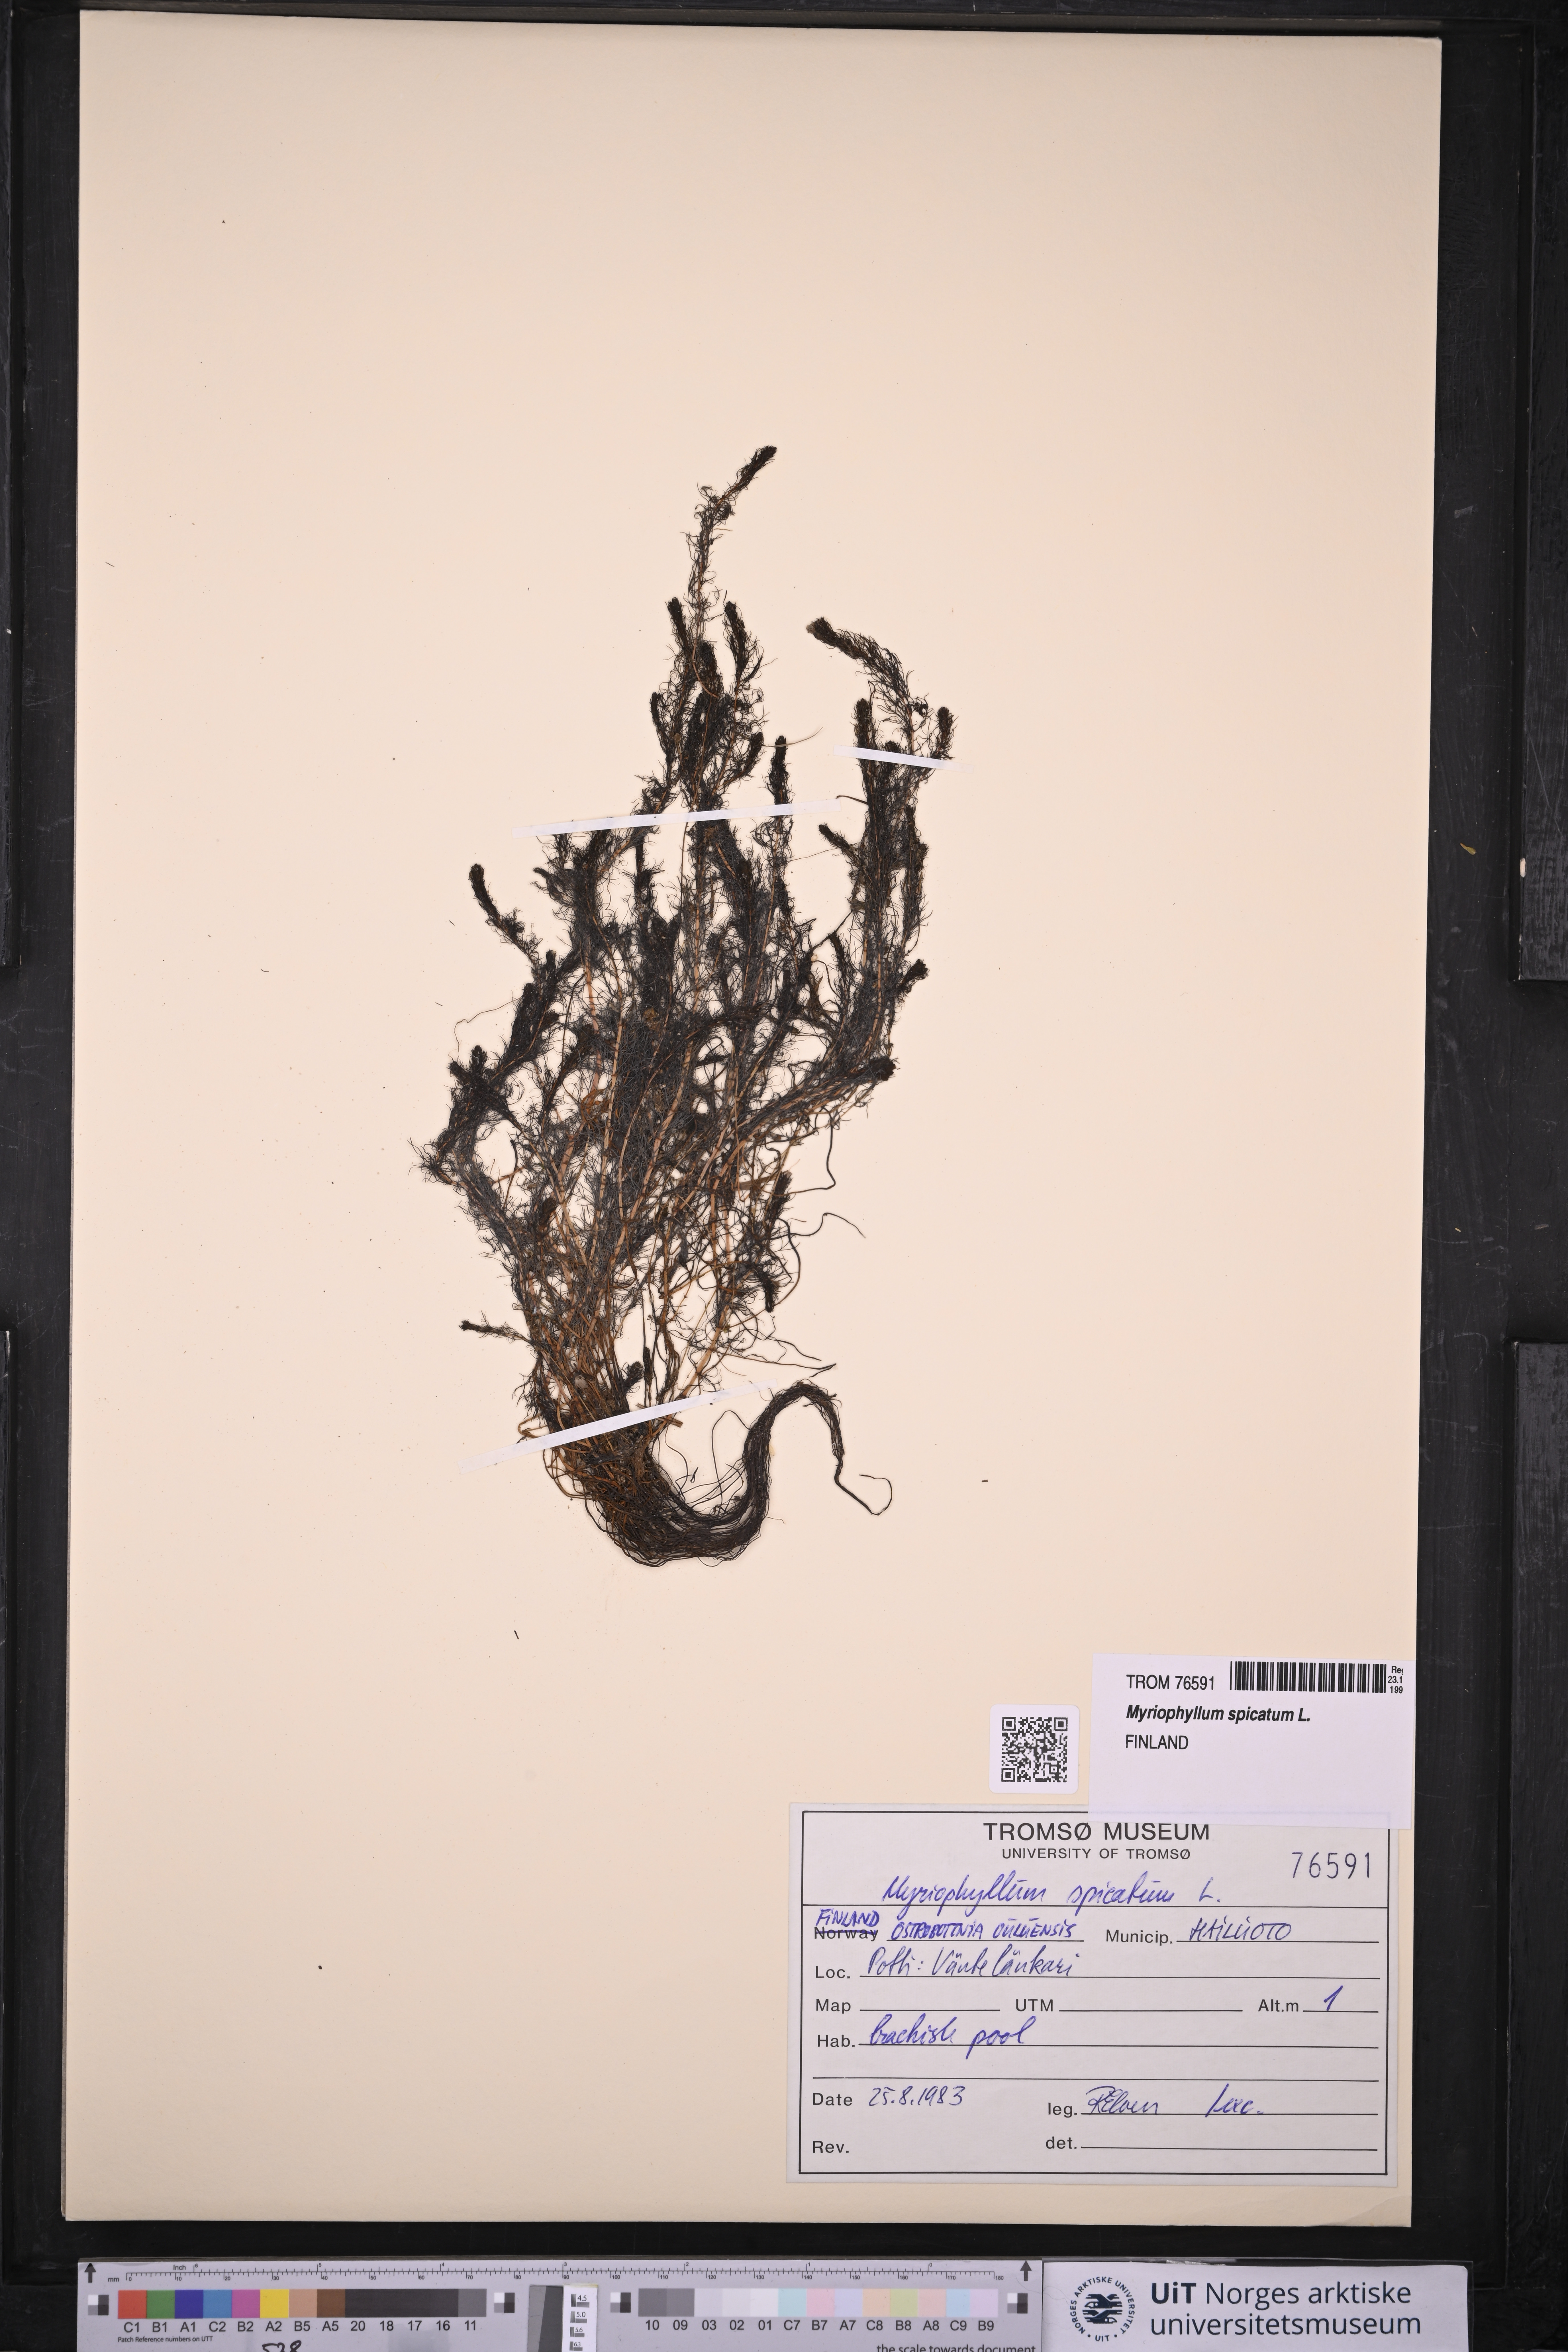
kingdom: Plantae
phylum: Tracheophyta
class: Magnoliopsida
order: Saxifragales
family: Haloragaceae
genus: Myriophyllum
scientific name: Myriophyllum spicatum
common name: Spiked water-milfoil
